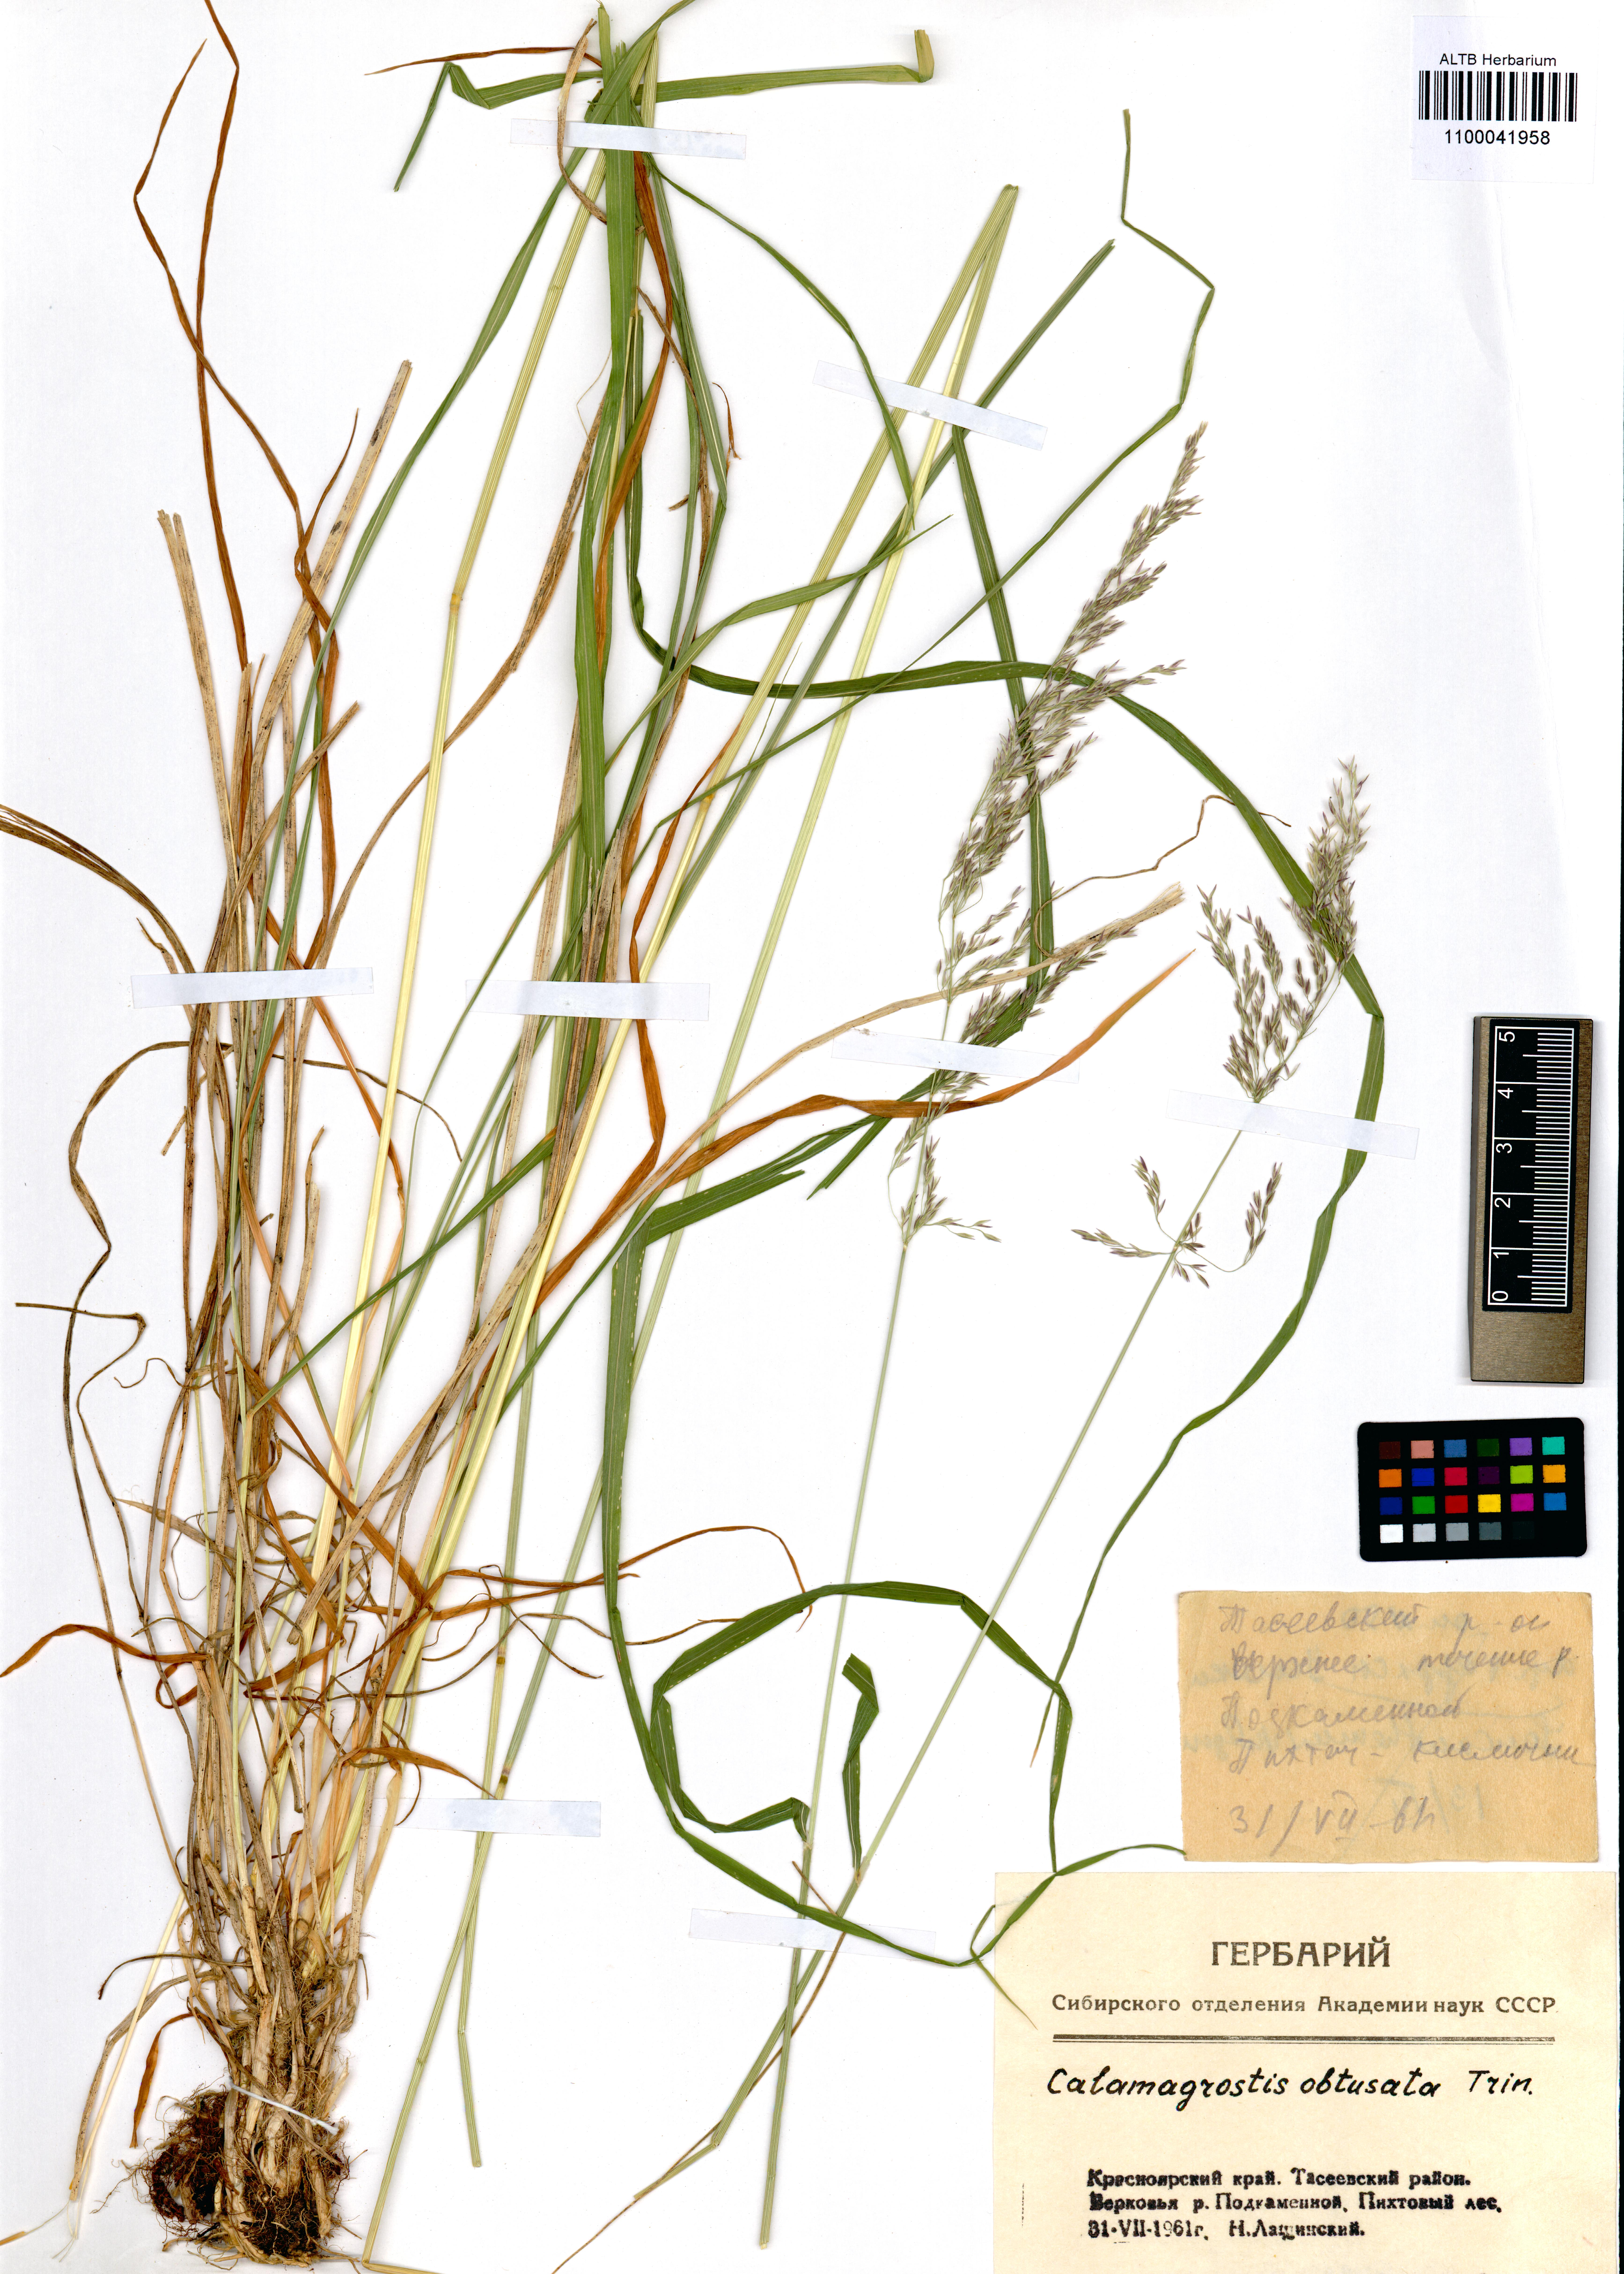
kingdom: Plantae
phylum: Tracheophyta
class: Liliopsida
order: Poales
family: Poaceae
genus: Calamagrostis
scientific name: Calamagrostis obtusata
